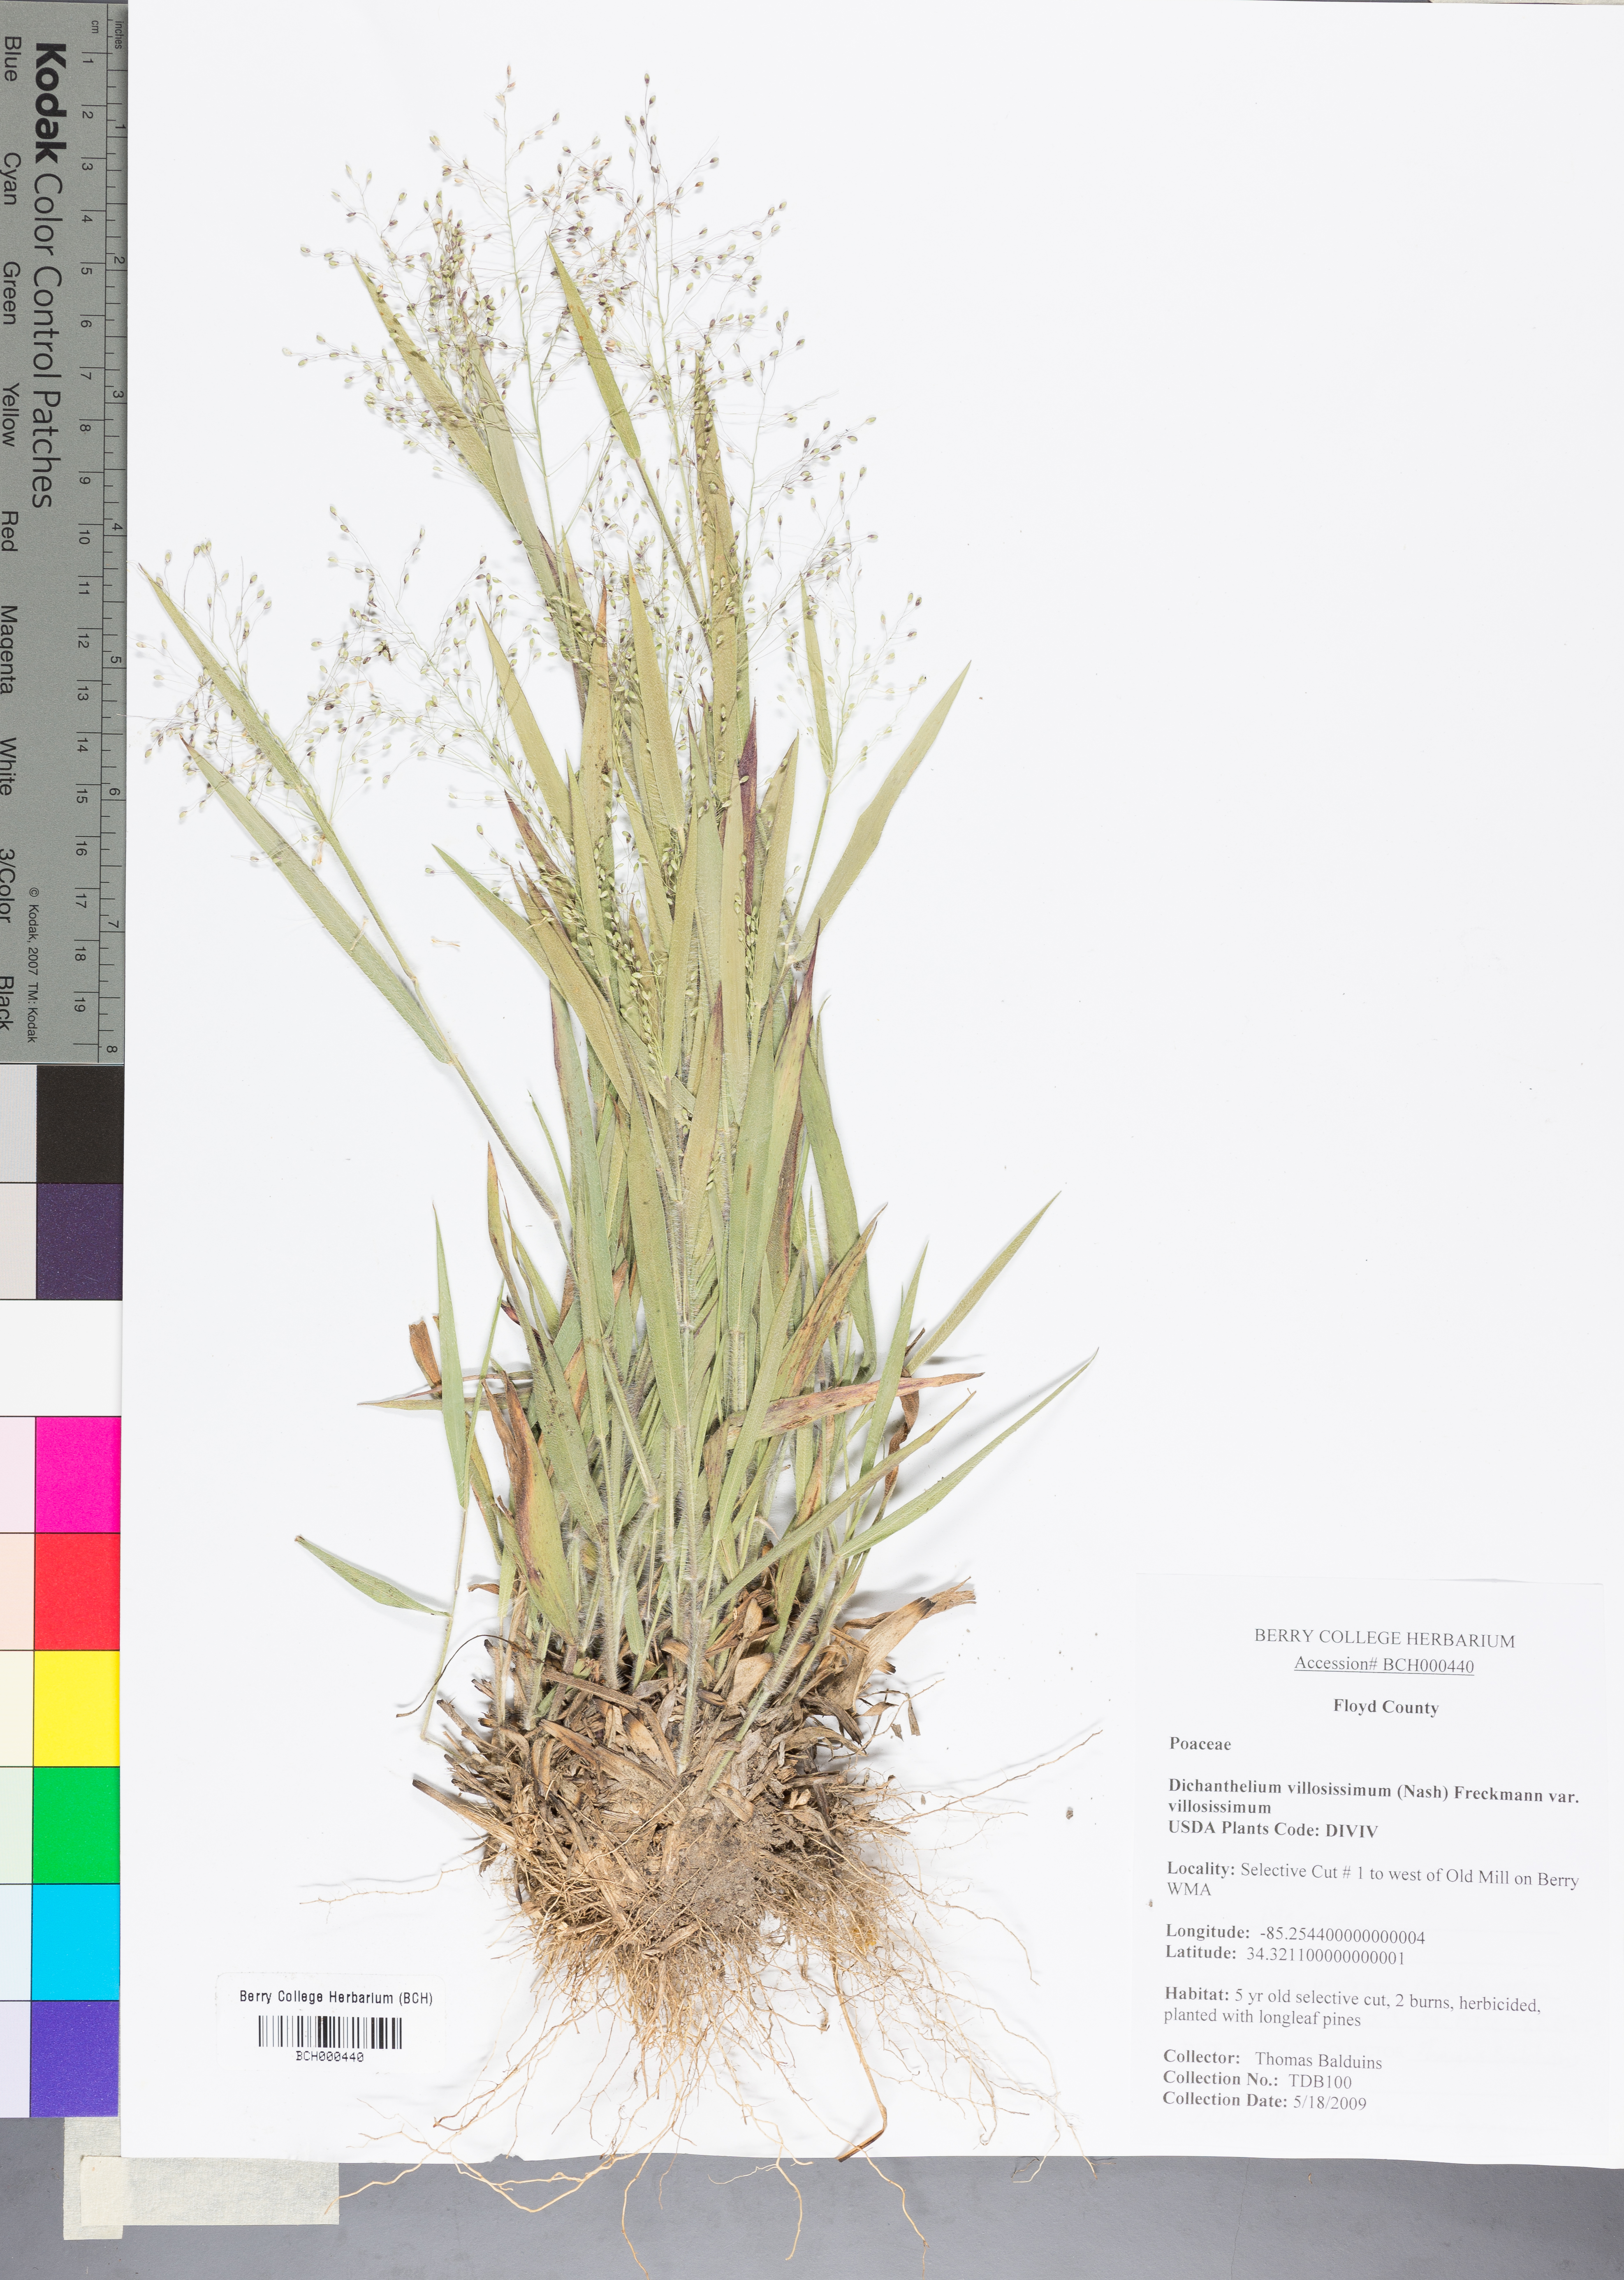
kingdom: Plantae
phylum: Tracheophyta
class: Liliopsida
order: Poales
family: Poaceae
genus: Dichanthelium
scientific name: Dichanthelium acuminatum
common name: Hairy panic grass
